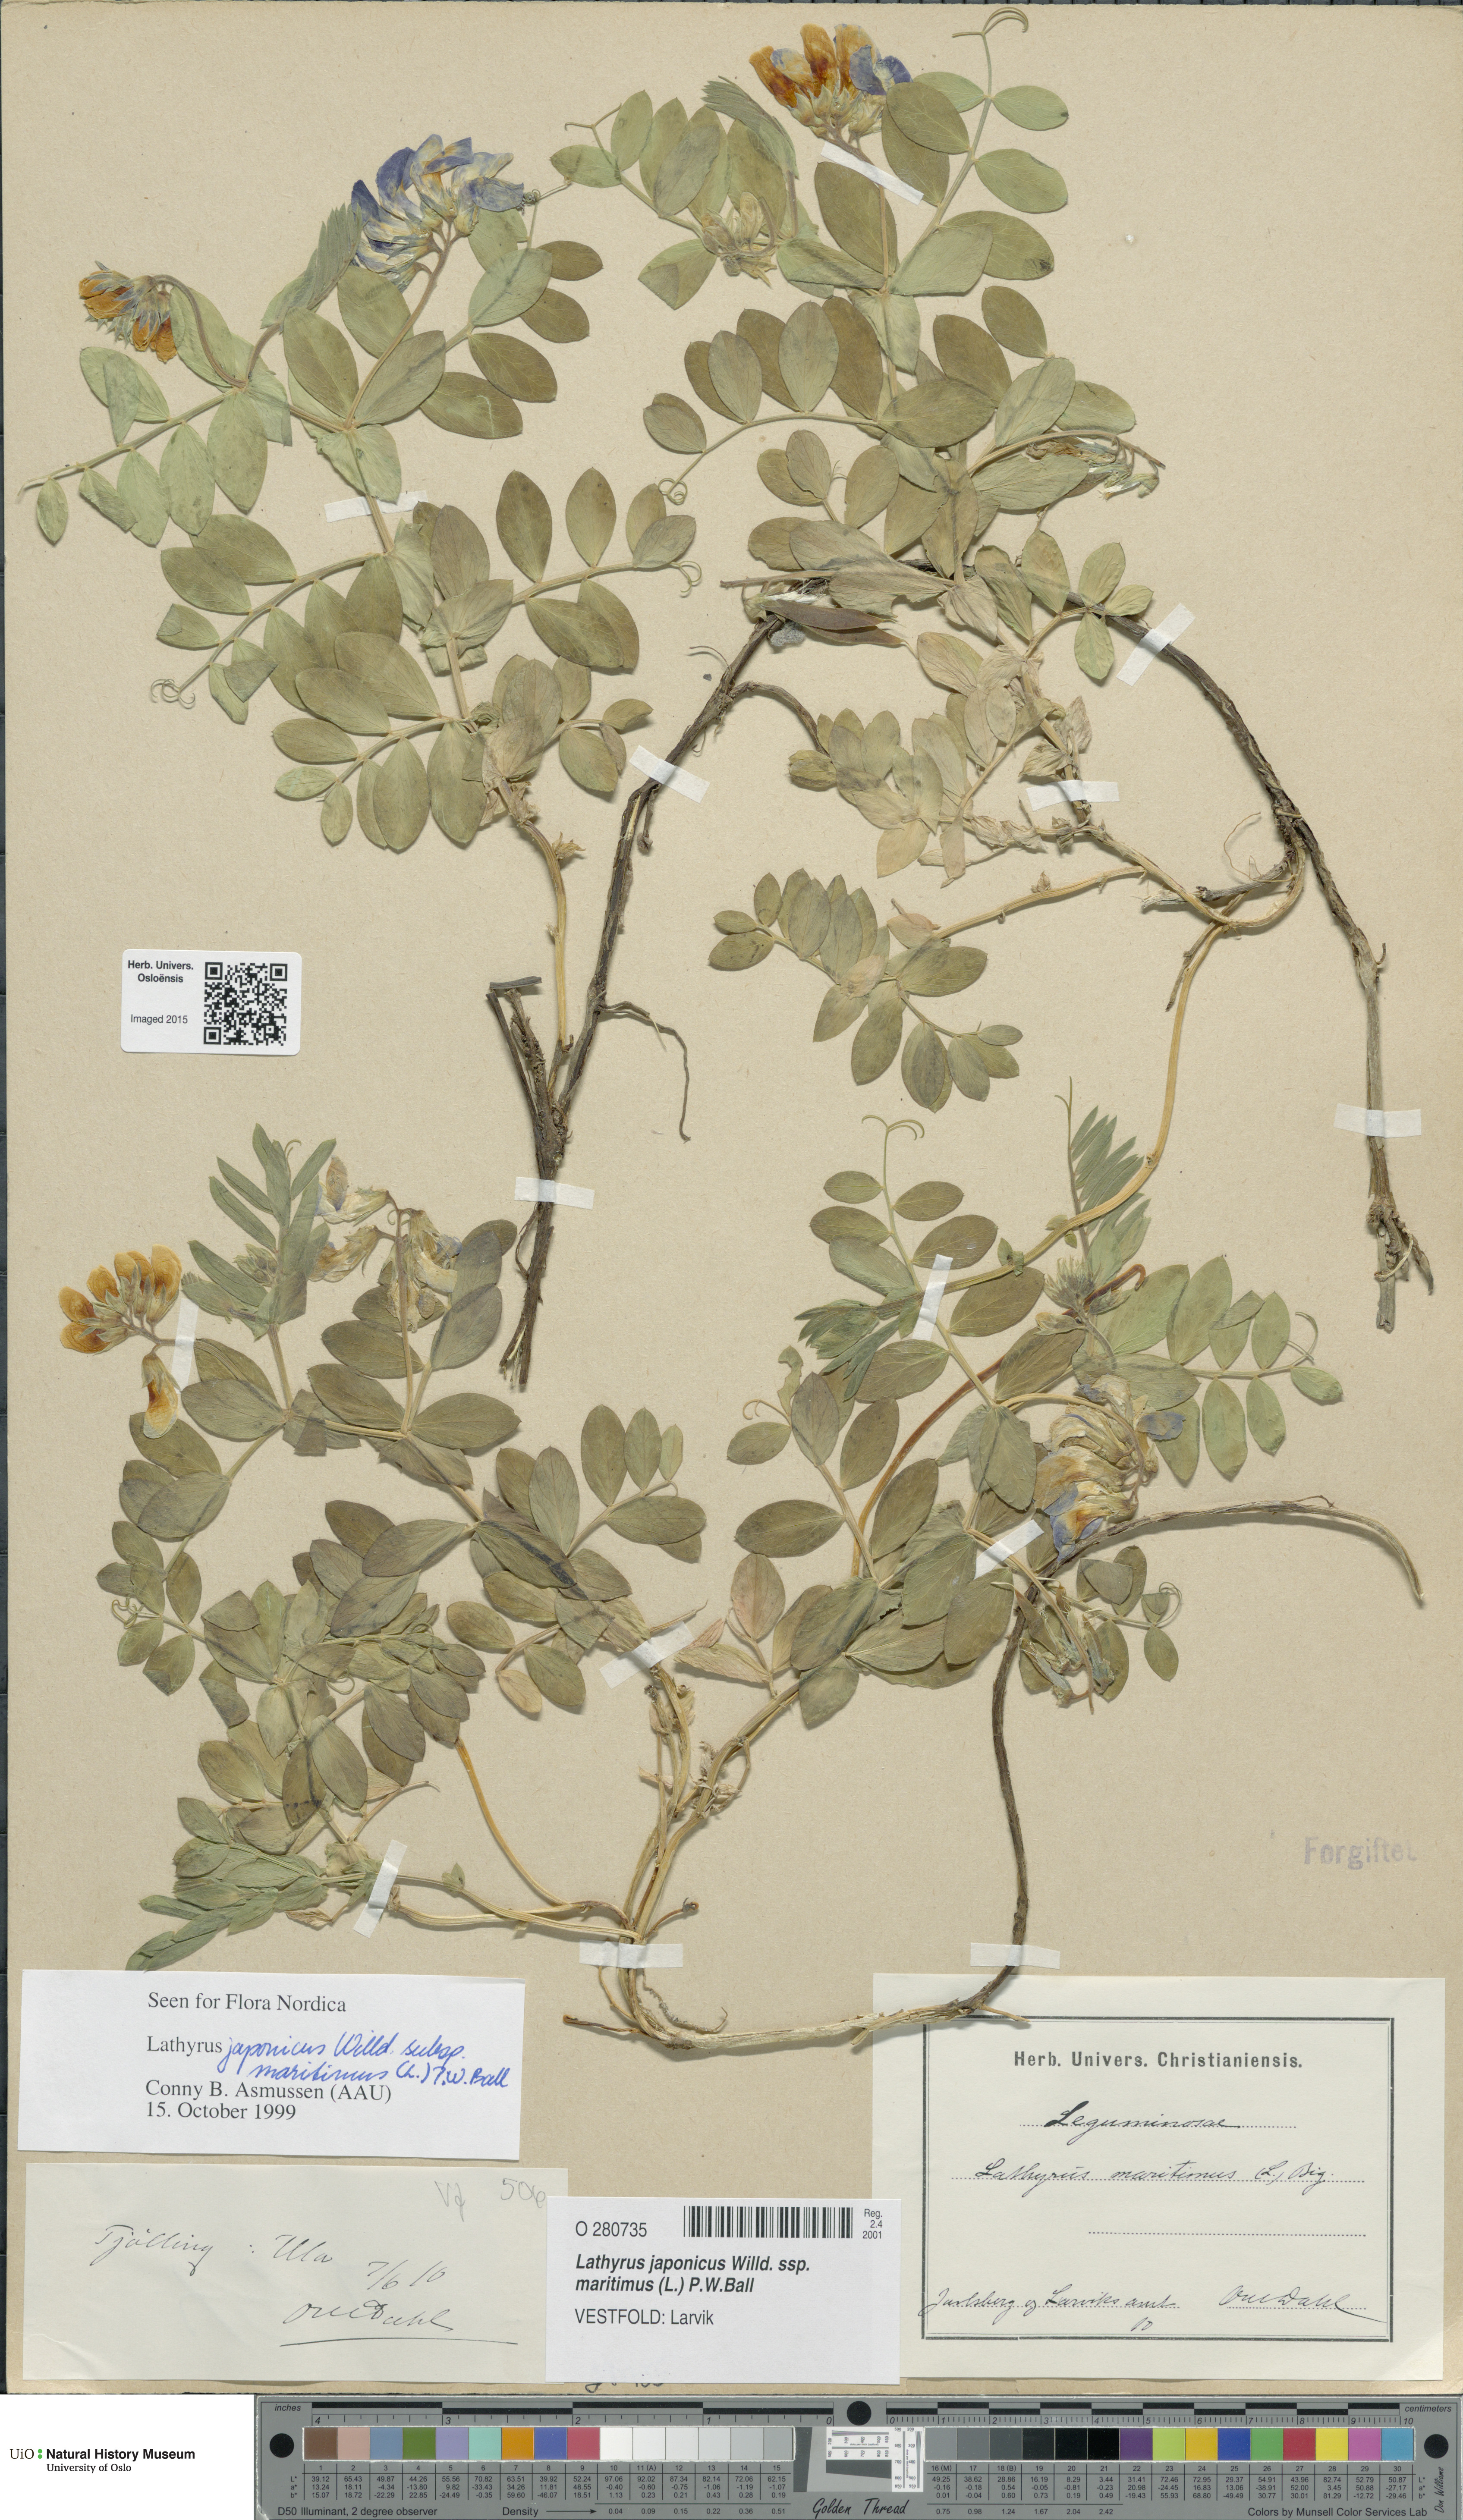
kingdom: Plantae
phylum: Tracheophyta
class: Magnoliopsida
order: Fabales
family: Fabaceae
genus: Lathyrus
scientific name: Lathyrus japonicus
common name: Sea pea
